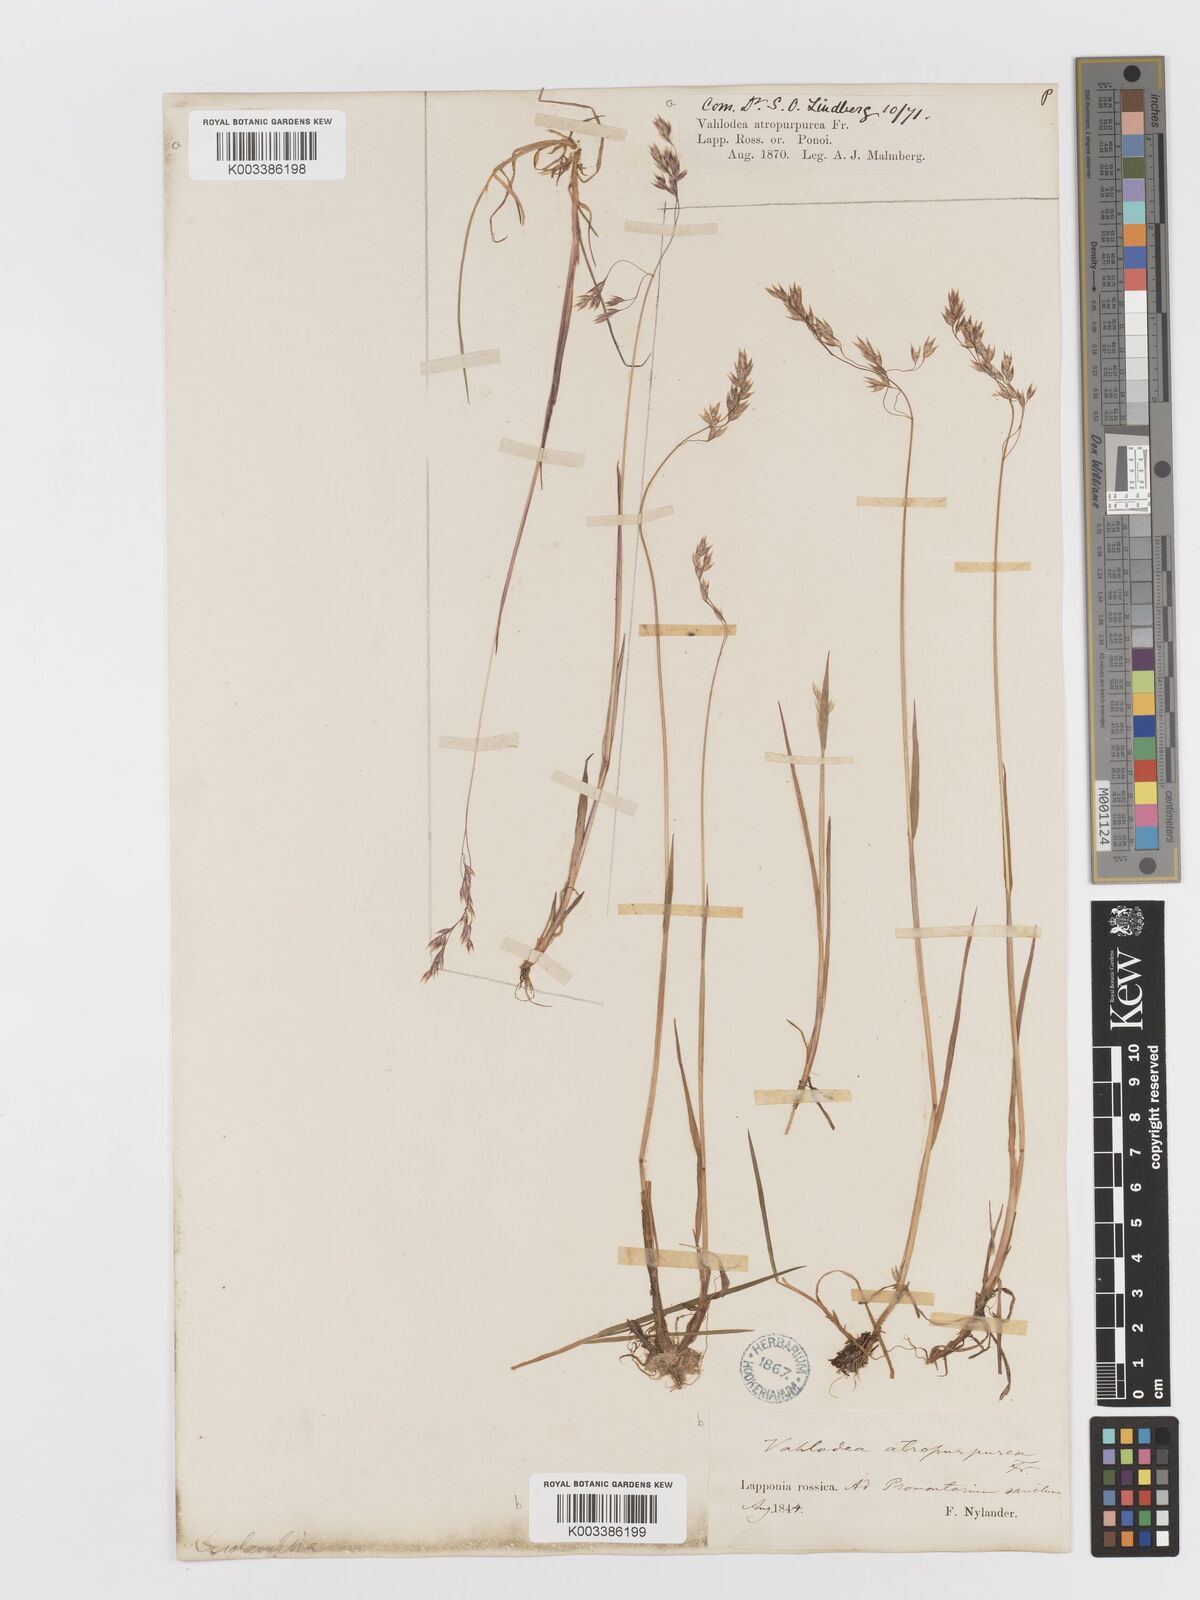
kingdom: Plantae
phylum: Tracheophyta
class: Liliopsida
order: Poales
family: Poaceae
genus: Vahlodea
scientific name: Vahlodea atropurpurea
